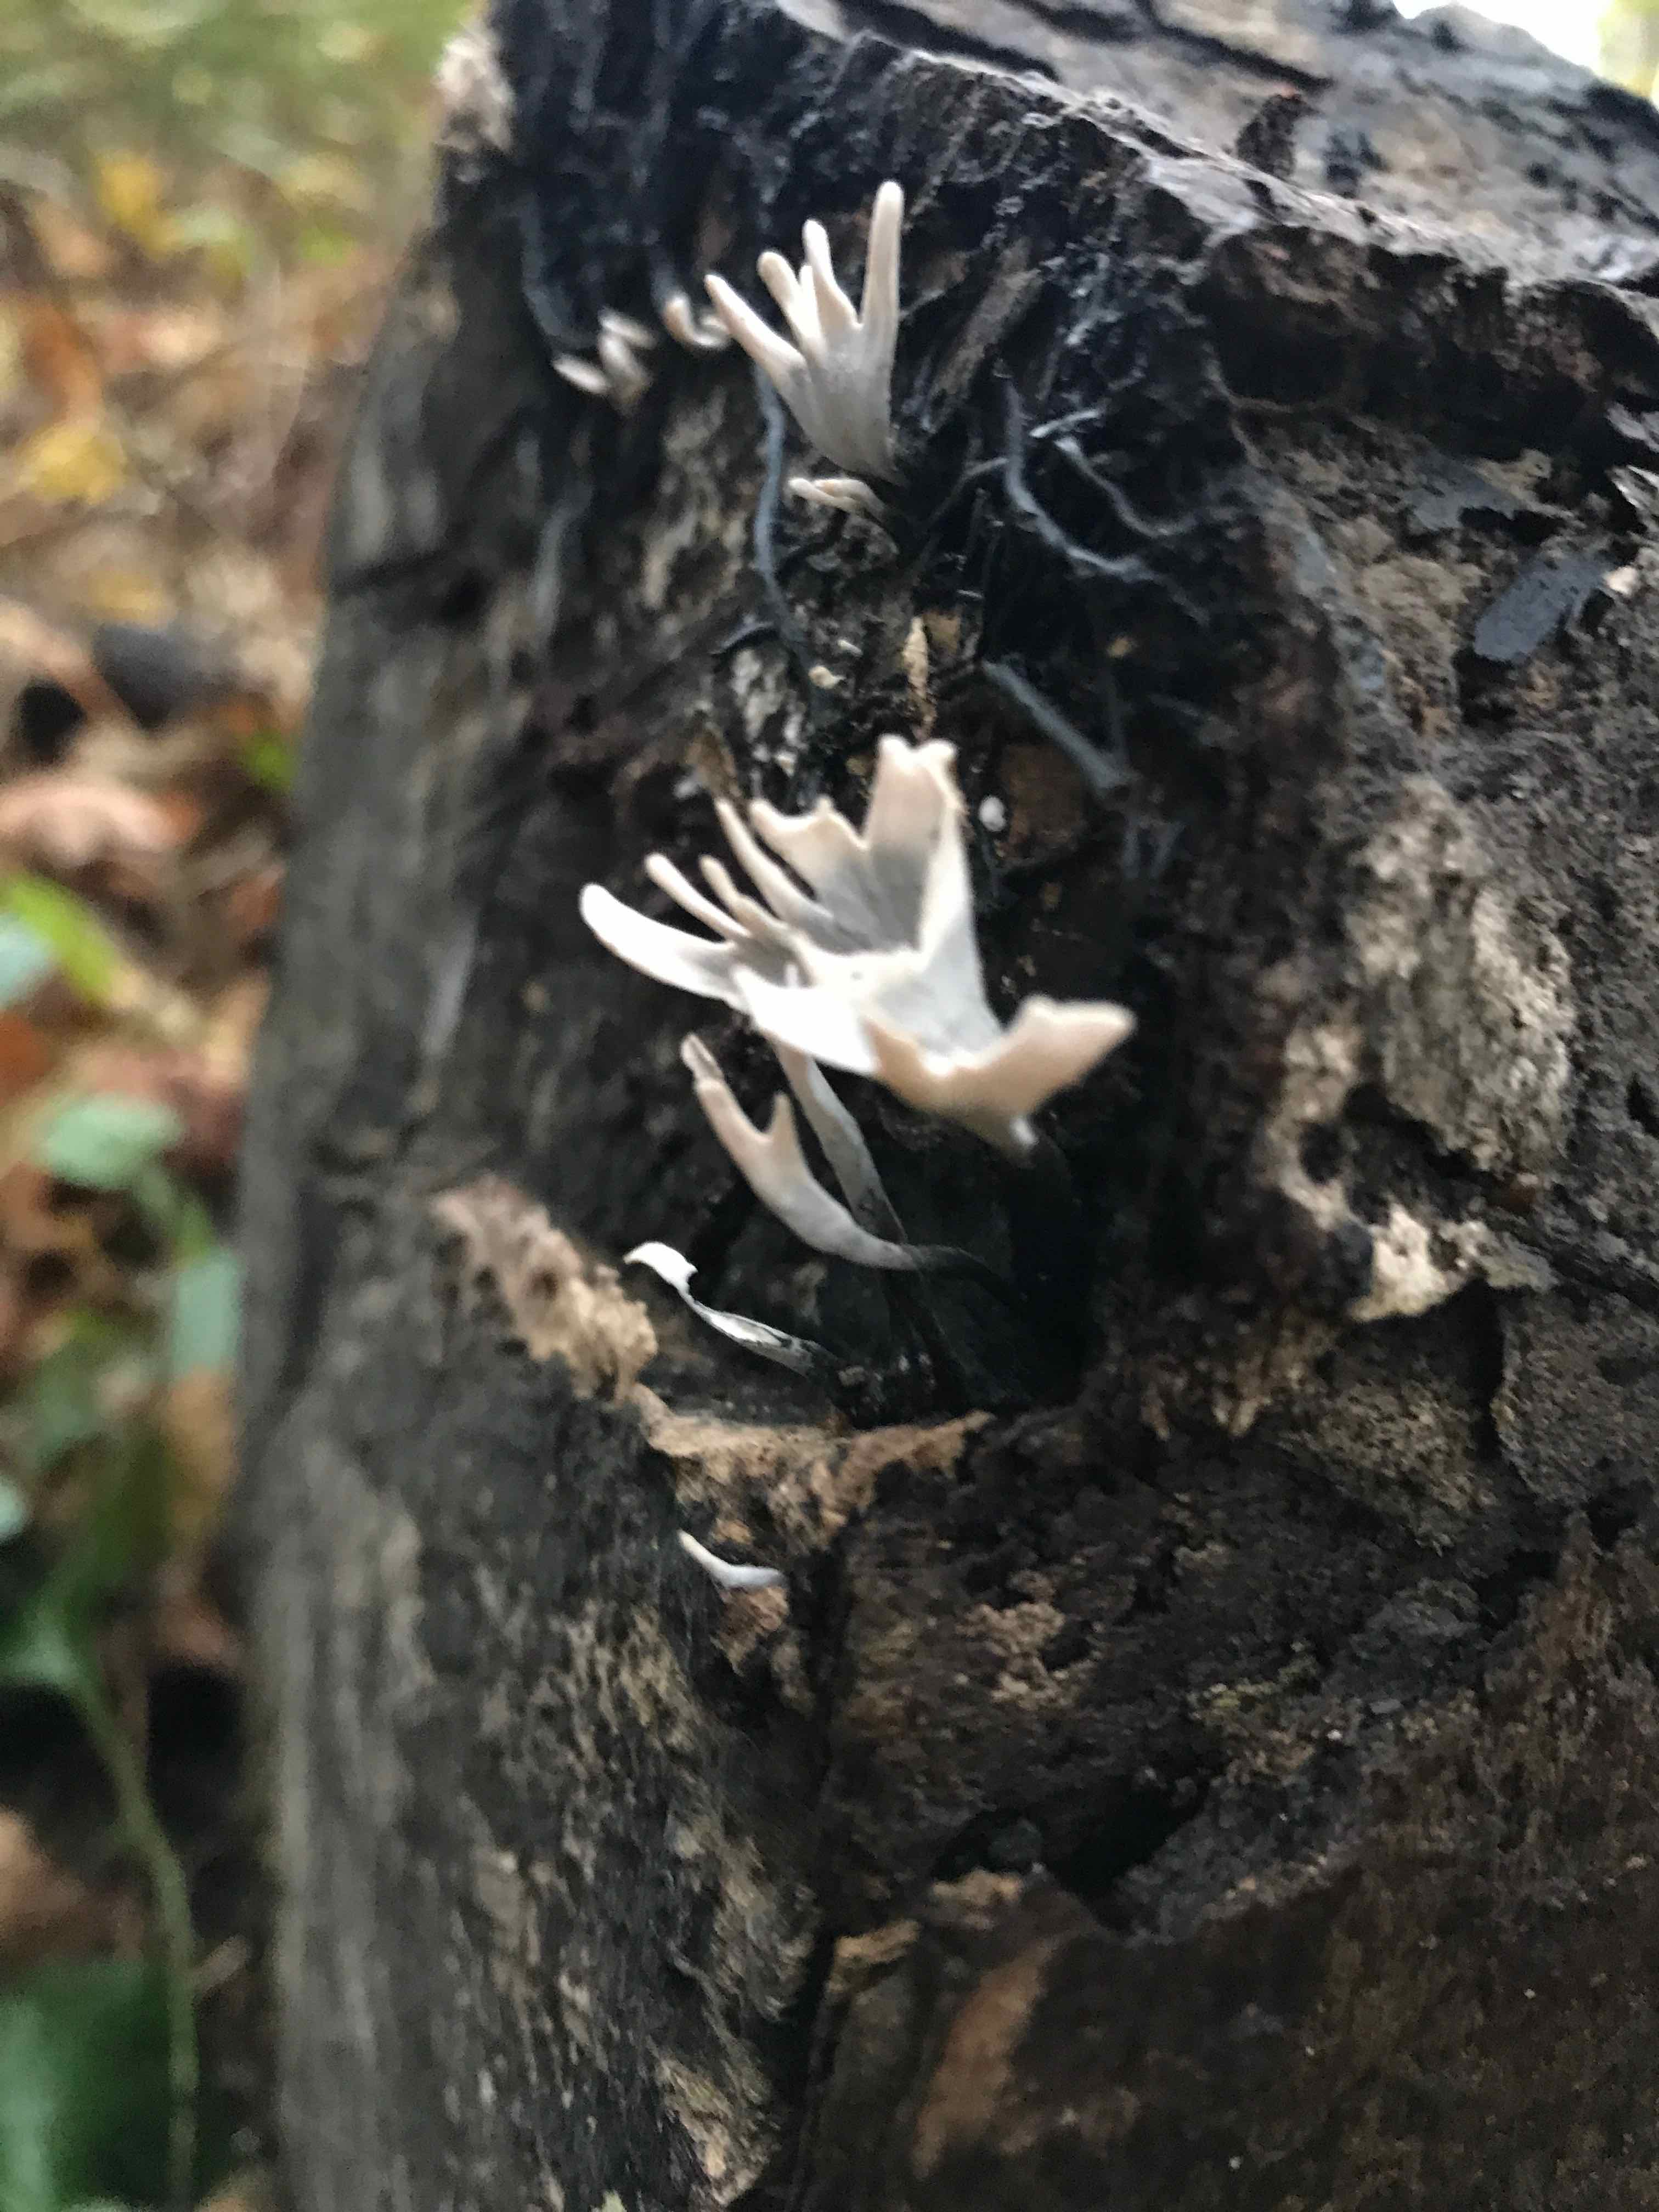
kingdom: Fungi
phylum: Ascomycota
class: Sordariomycetes
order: Xylariales
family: Xylariaceae
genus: Xylaria
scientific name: Xylaria hypoxylon
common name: grenet stødsvamp
